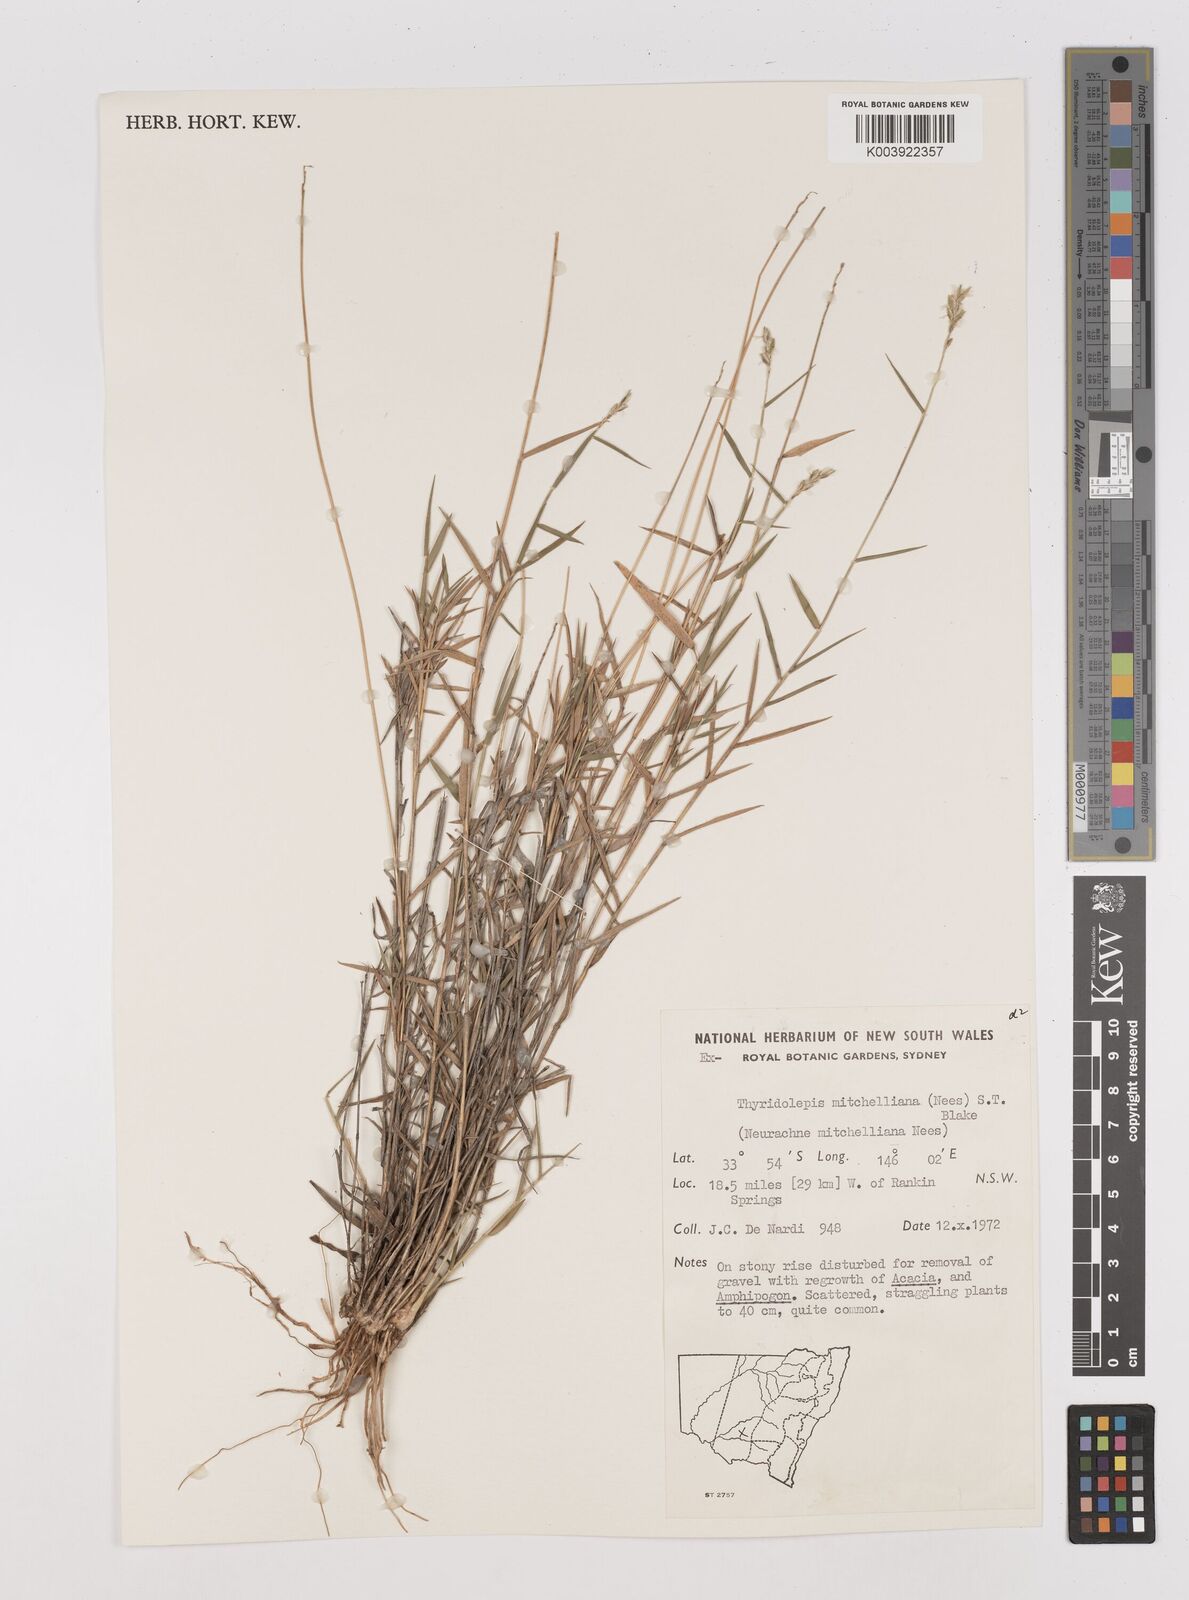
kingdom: Plantae
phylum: Tracheophyta
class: Liliopsida
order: Poales
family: Poaceae
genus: Thyridolepis
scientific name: Thyridolepis mitchelliana
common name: Rock tassel grass
